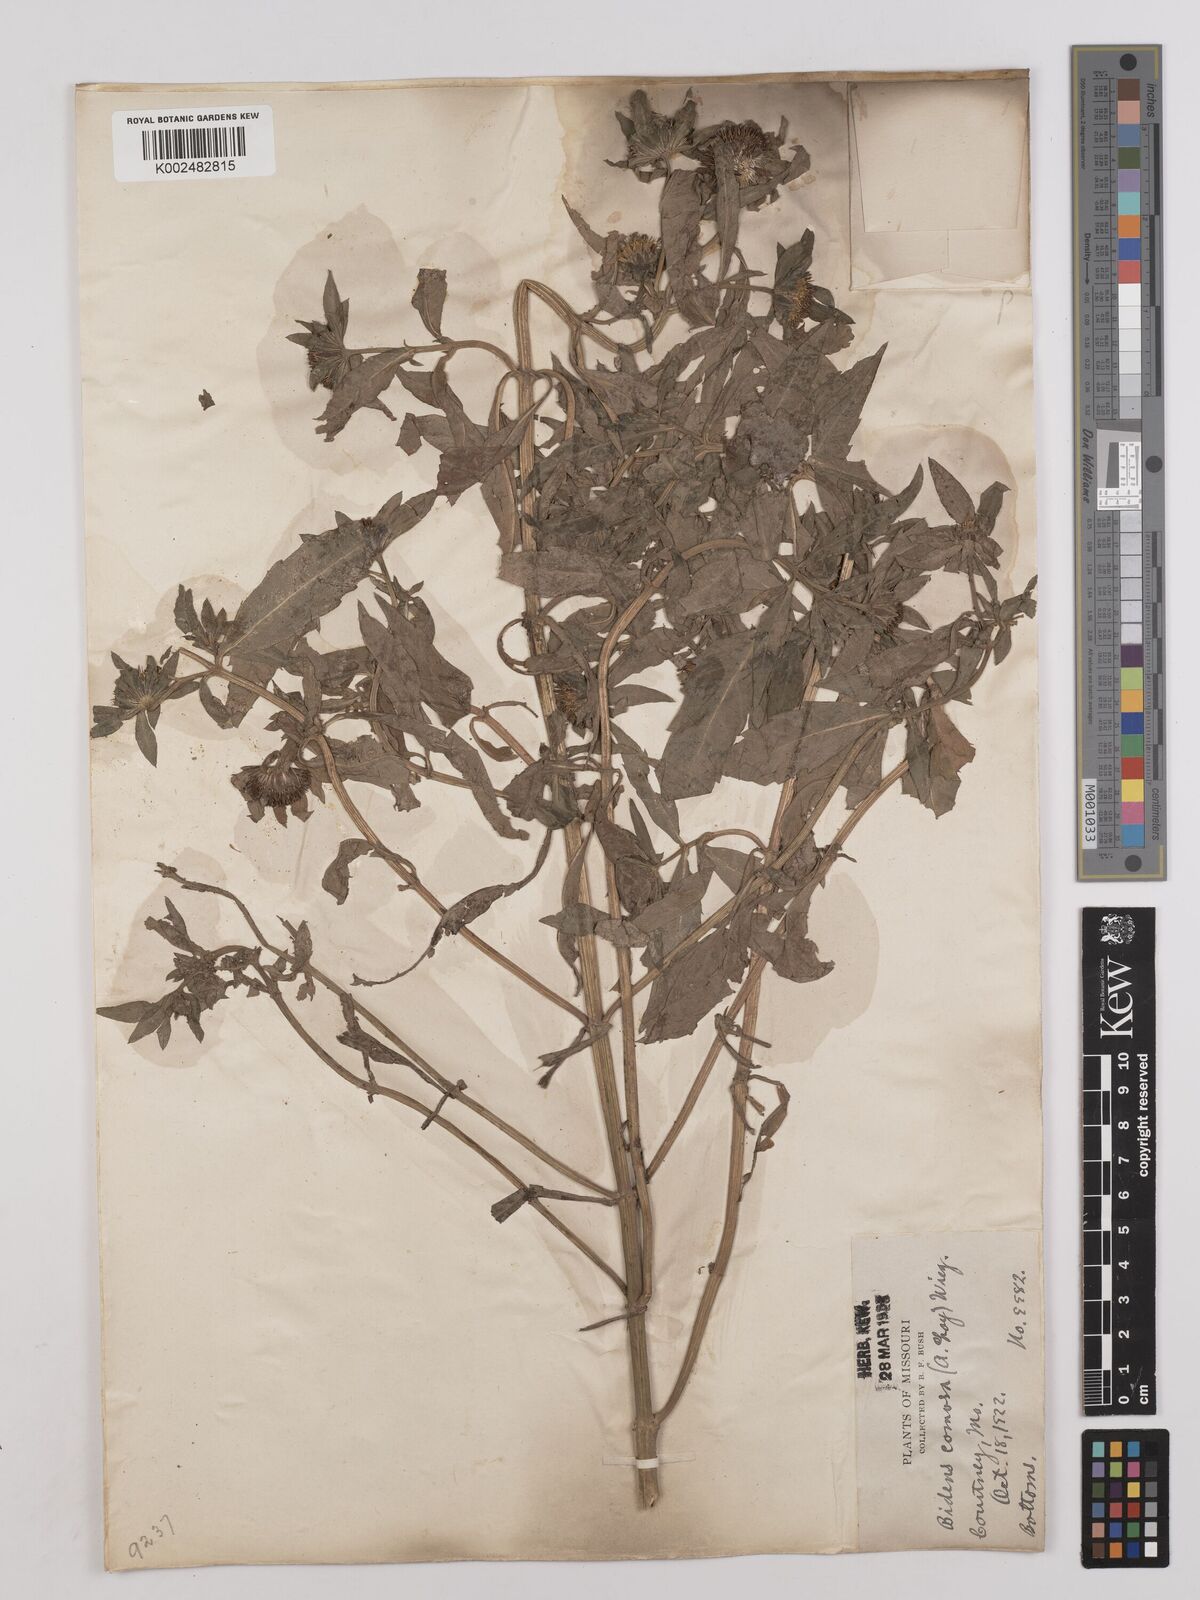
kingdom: Plantae
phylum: Tracheophyta
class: Magnoliopsida
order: Asterales
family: Asteraceae
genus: Bidens
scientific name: Bidens tripartita
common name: Trifid bur-marigold
